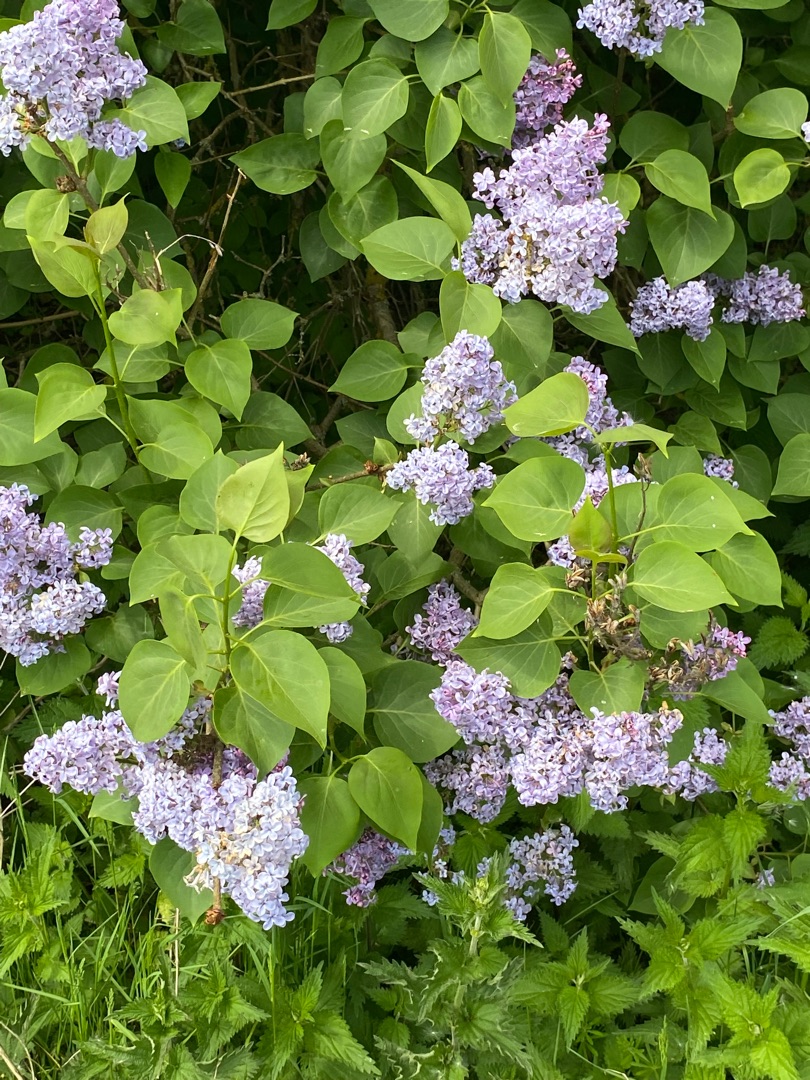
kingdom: Plantae
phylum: Tracheophyta
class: Magnoliopsida
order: Lamiales
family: Oleaceae
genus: Syringa
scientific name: Syringa vulgaris
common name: Syren
